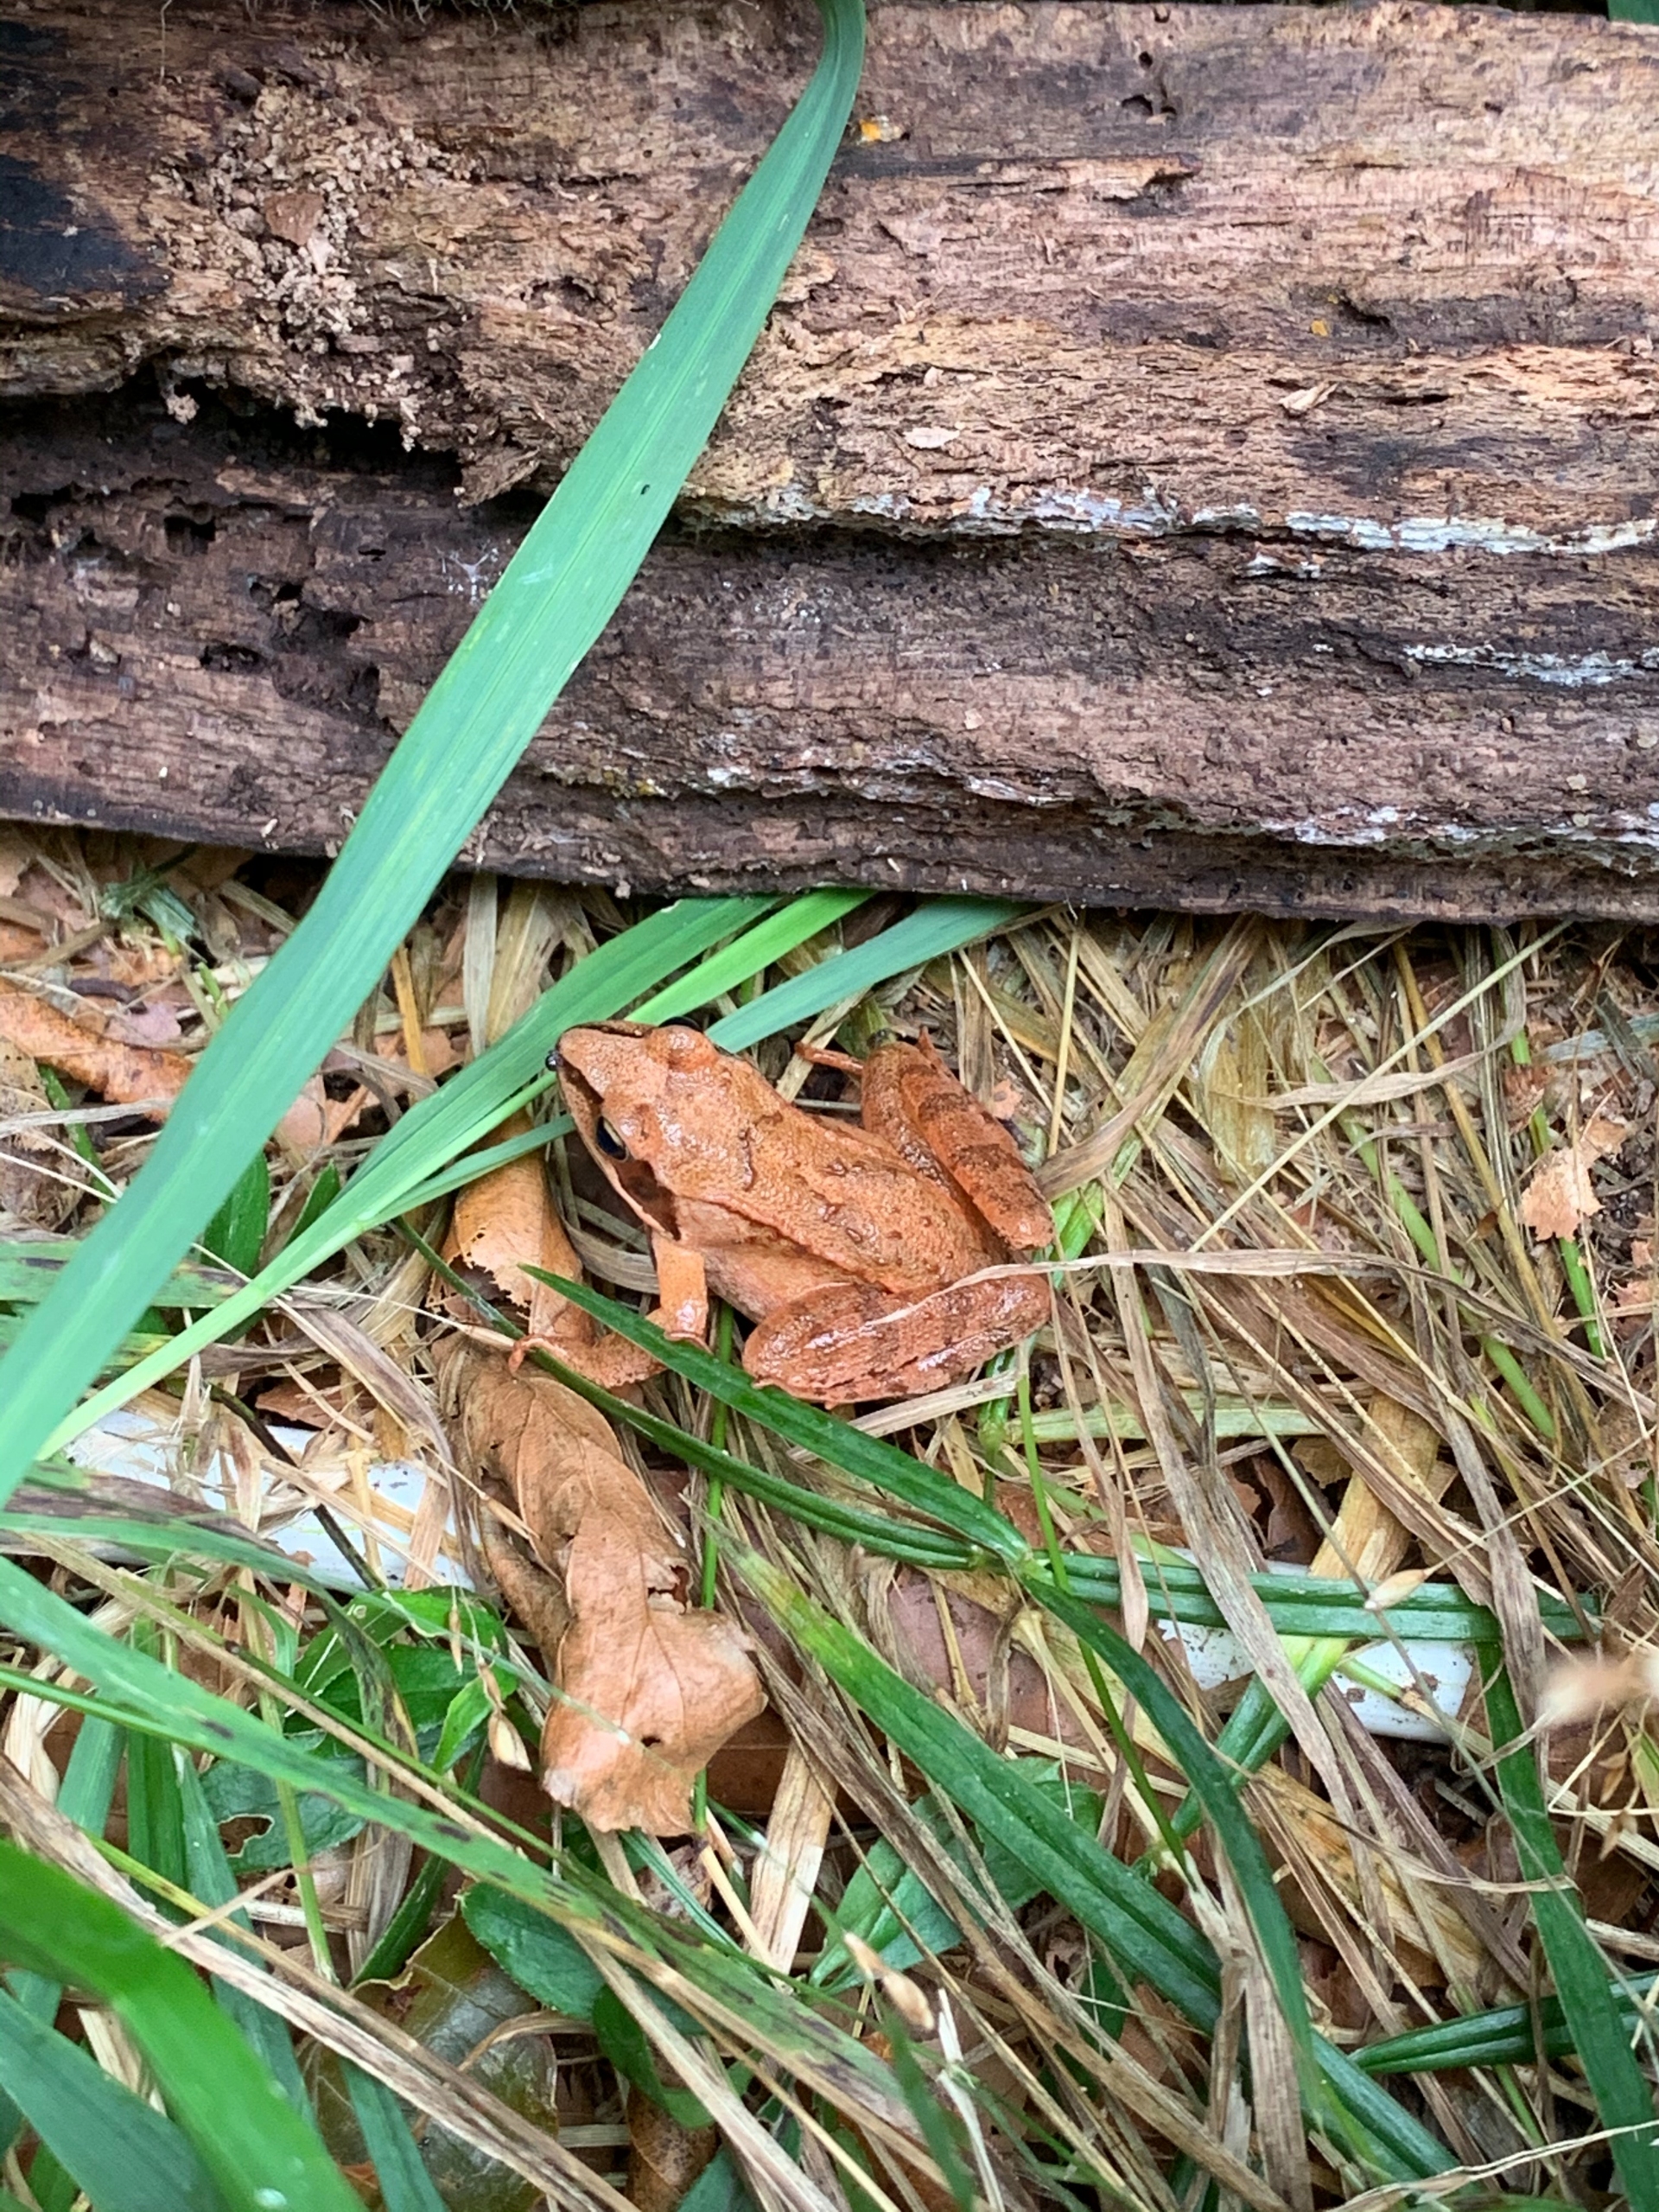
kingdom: Animalia
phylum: Chordata
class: Amphibia
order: Anura
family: Ranidae
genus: Rana
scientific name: Rana dalmatina
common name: Springfrø
